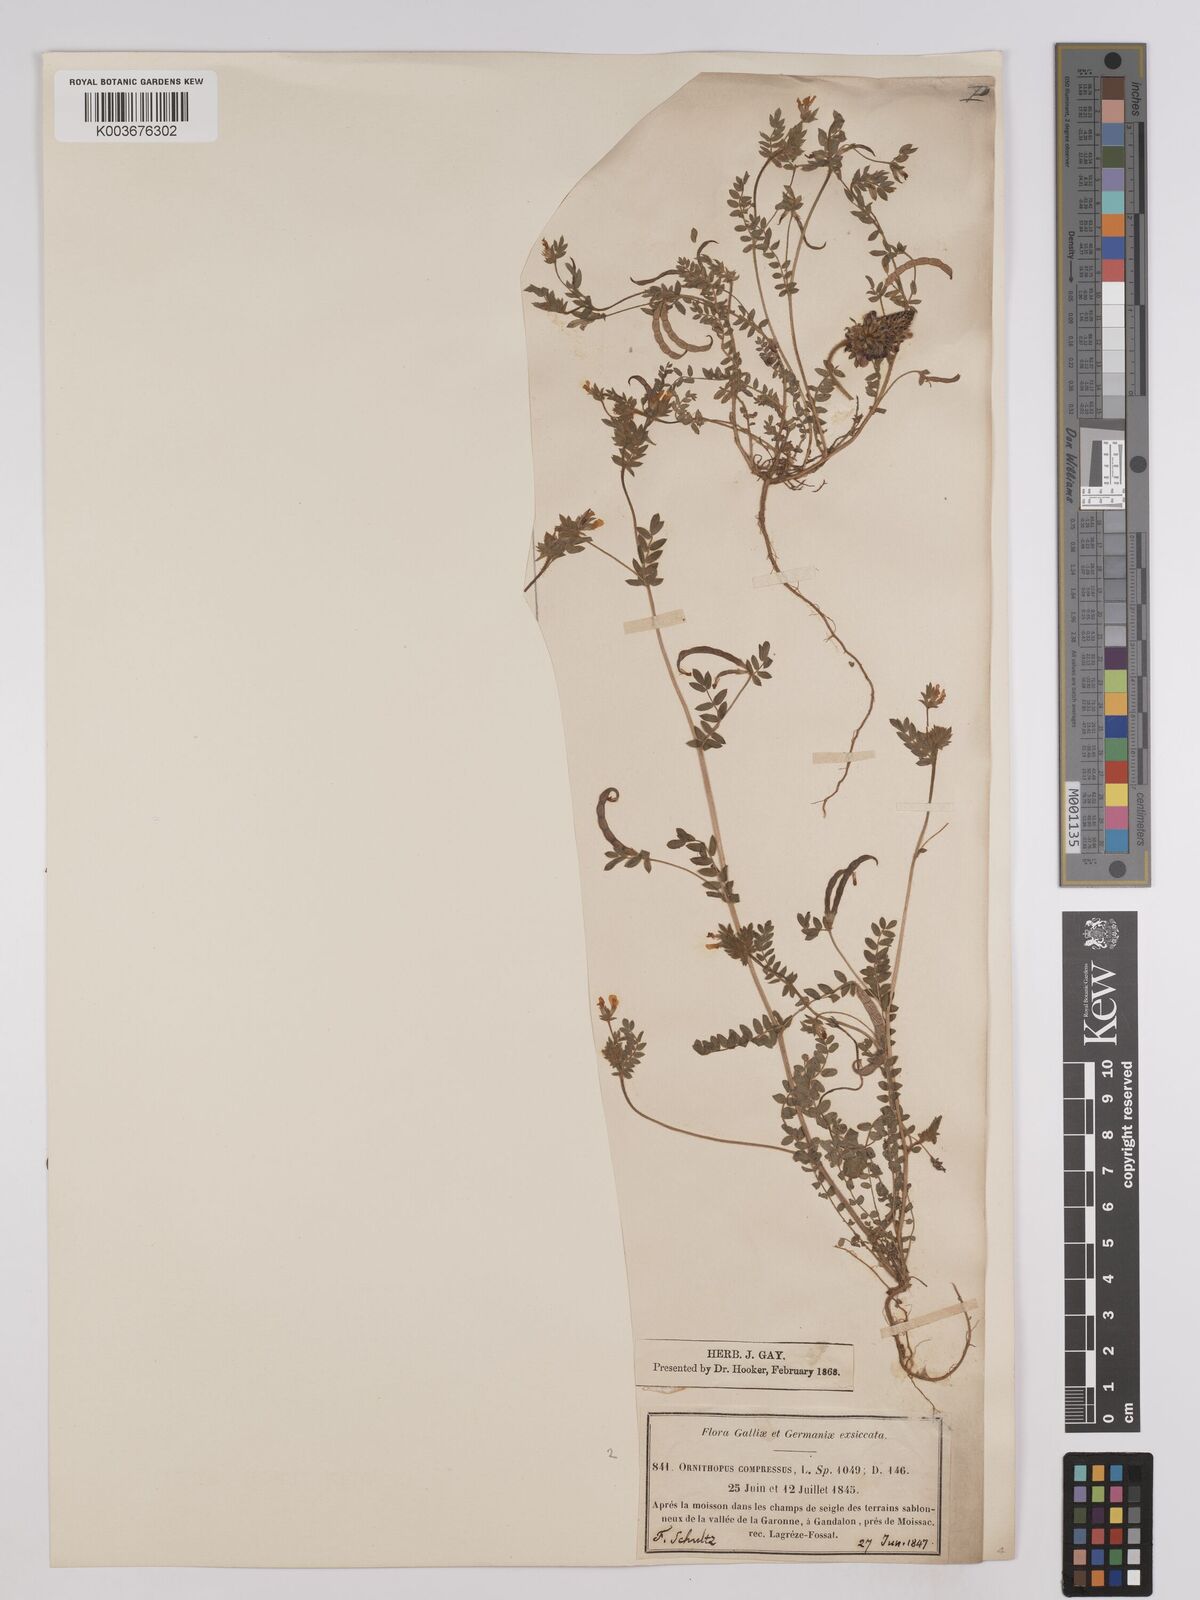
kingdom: Plantae
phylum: Tracheophyta
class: Magnoliopsida
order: Fabales
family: Fabaceae
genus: Ornithopus
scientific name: Ornithopus compressus
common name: Yellow serradella
